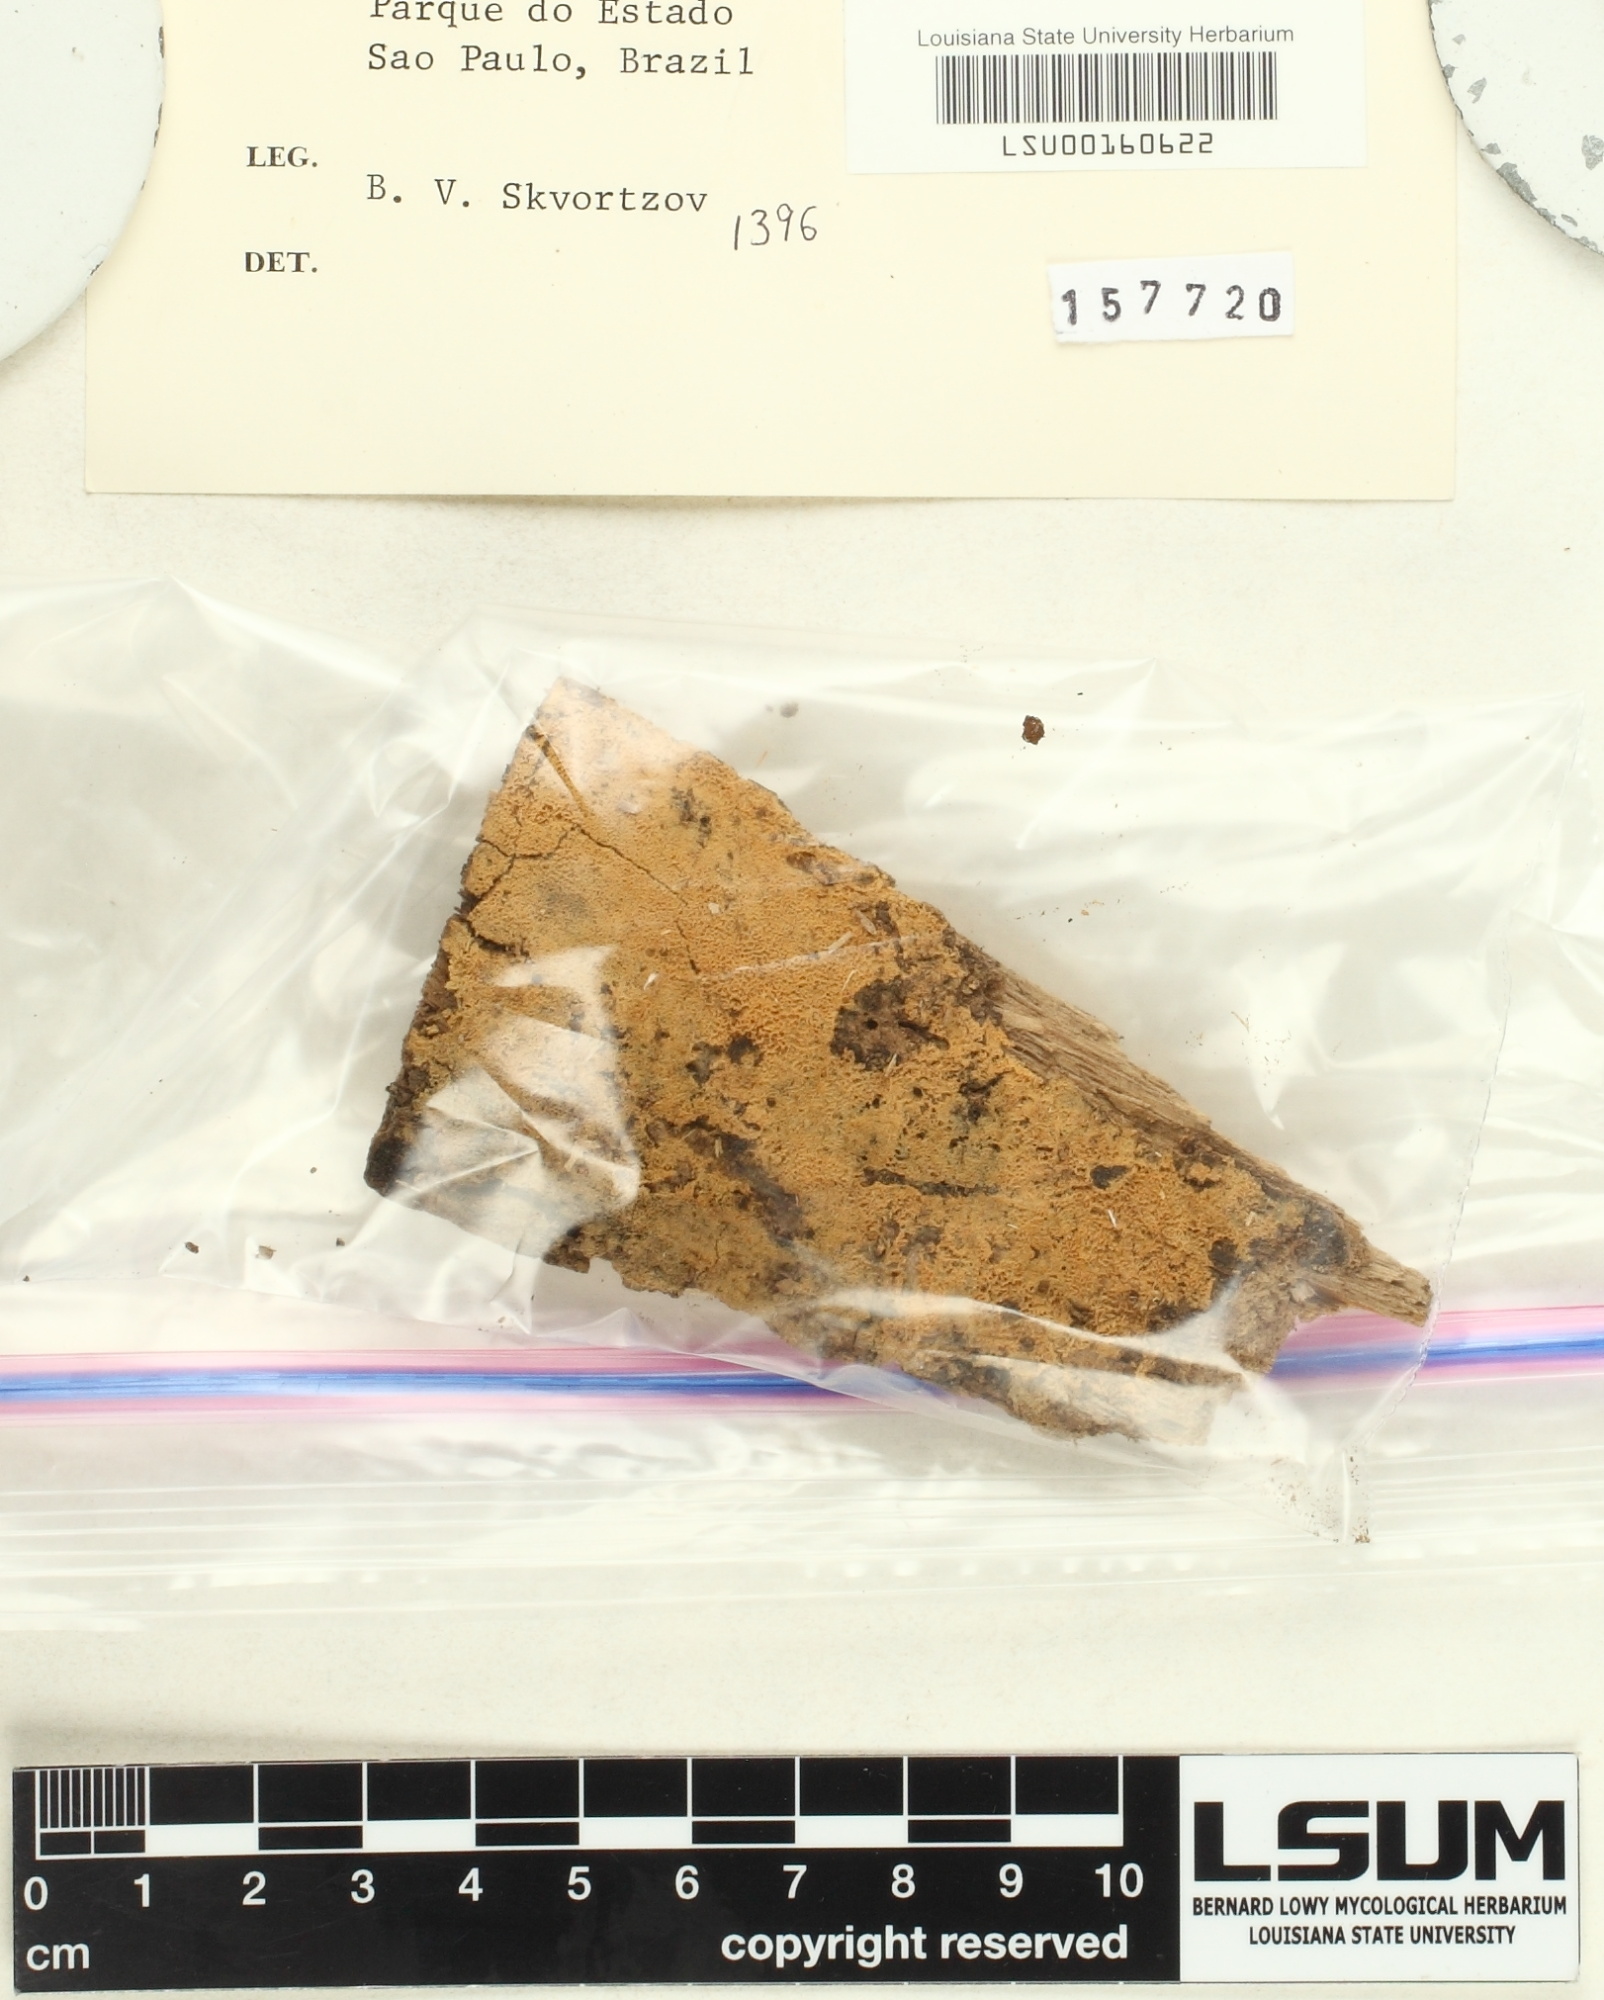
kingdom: Fungi
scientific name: Fungi
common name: Fungi
